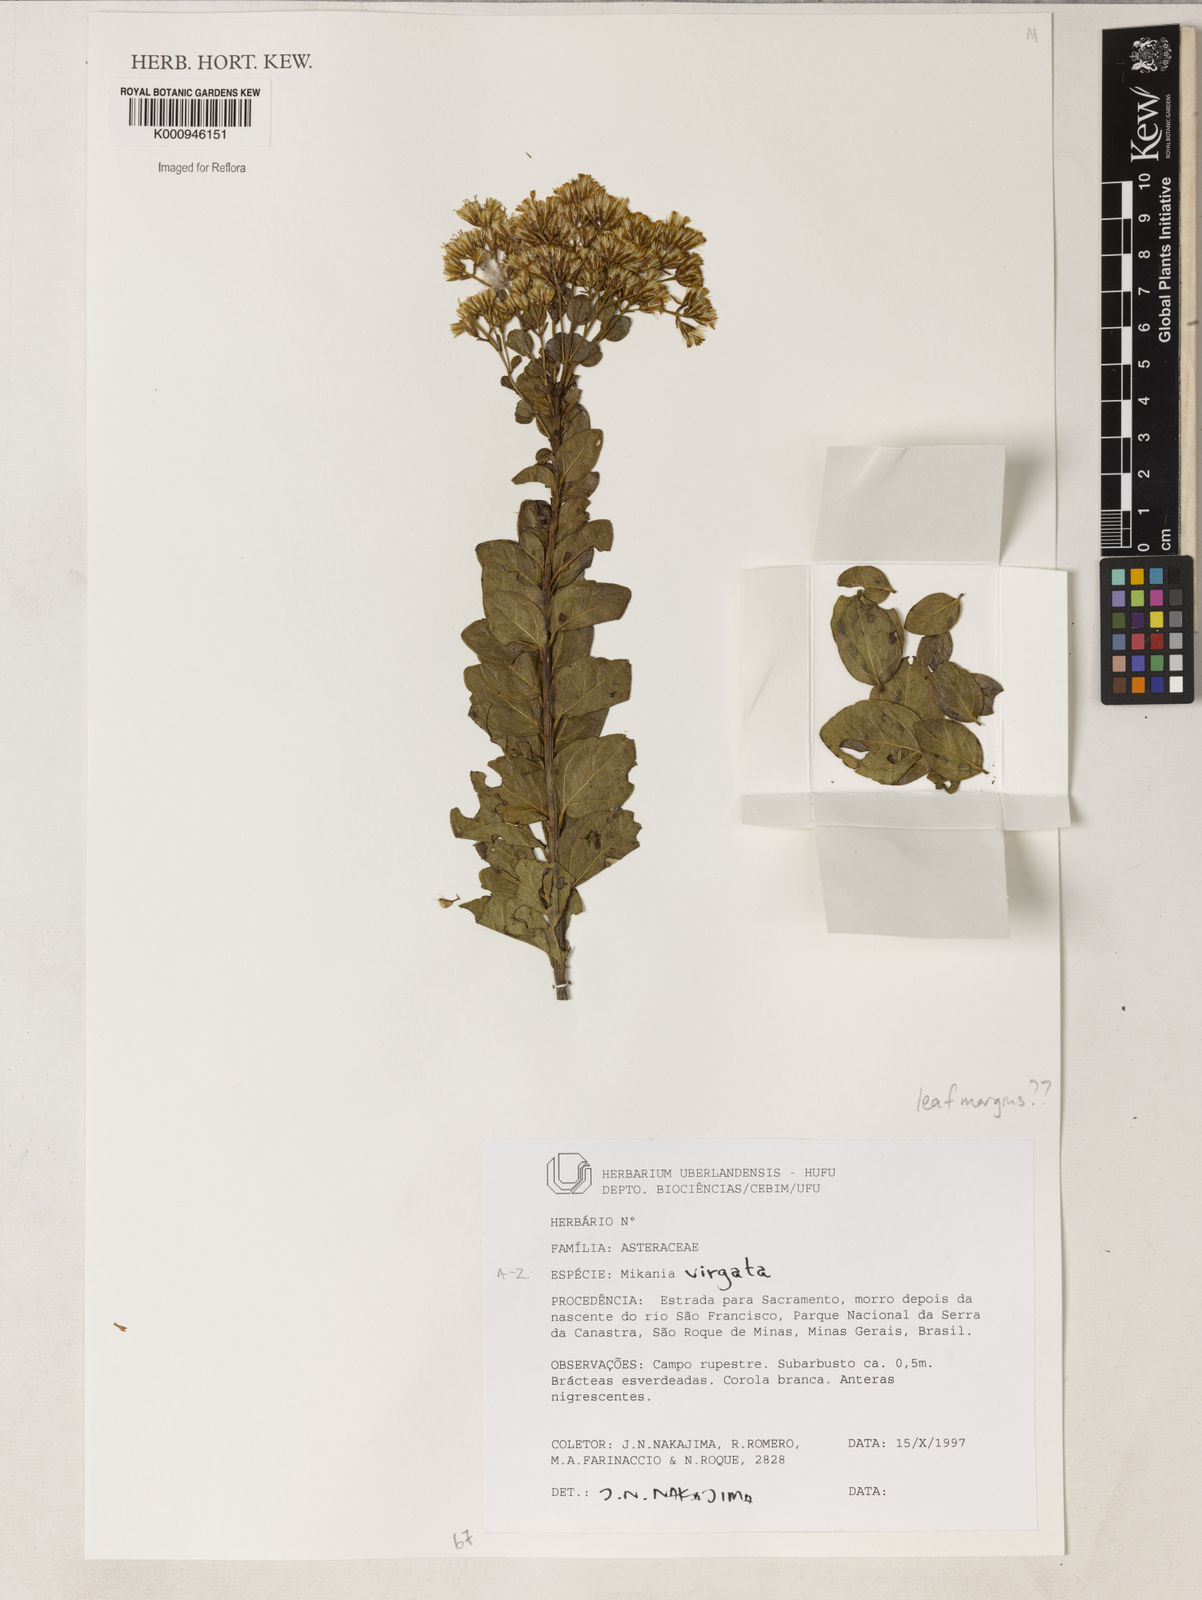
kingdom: Plantae
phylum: Tracheophyta
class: Magnoliopsida
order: Asterales
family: Asteraceae
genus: Mikania
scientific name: Mikania virgata
